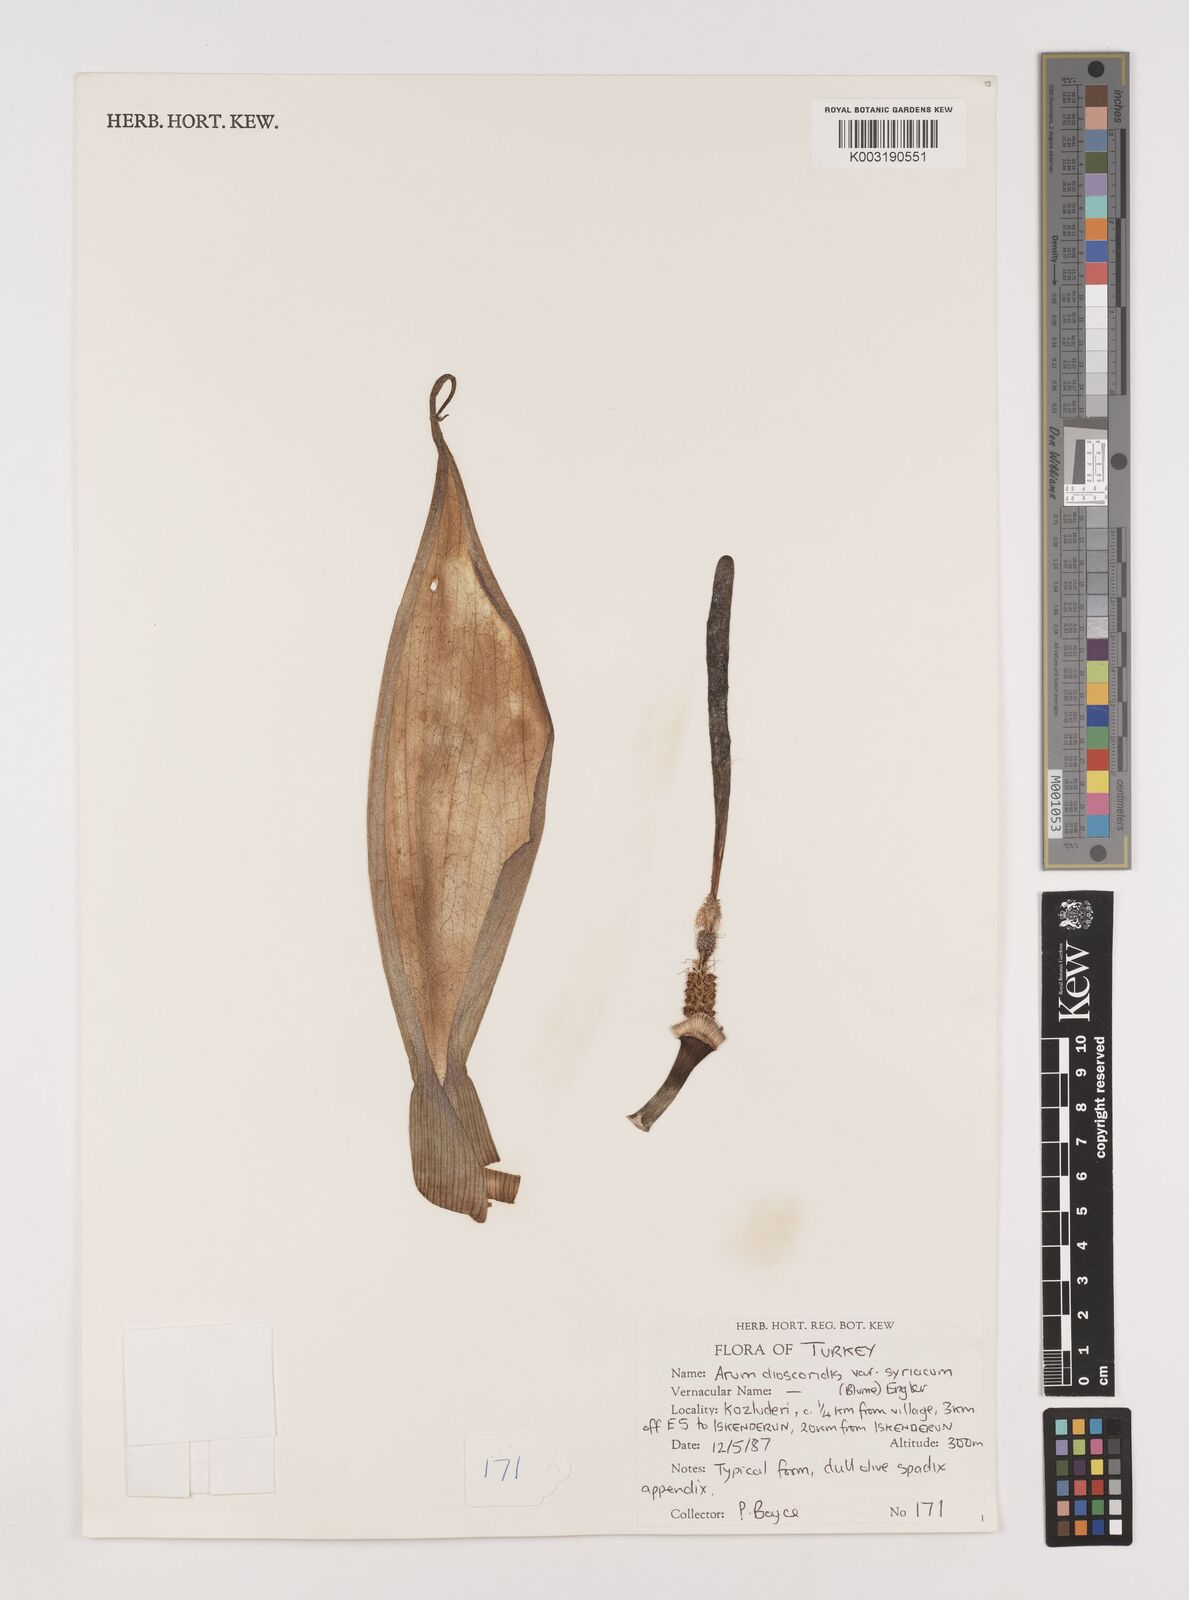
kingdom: Plantae
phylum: Tracheophyta
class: Liliopsida
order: Alismatales
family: Araceae
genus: Arum
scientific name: Arum dioscoridis
